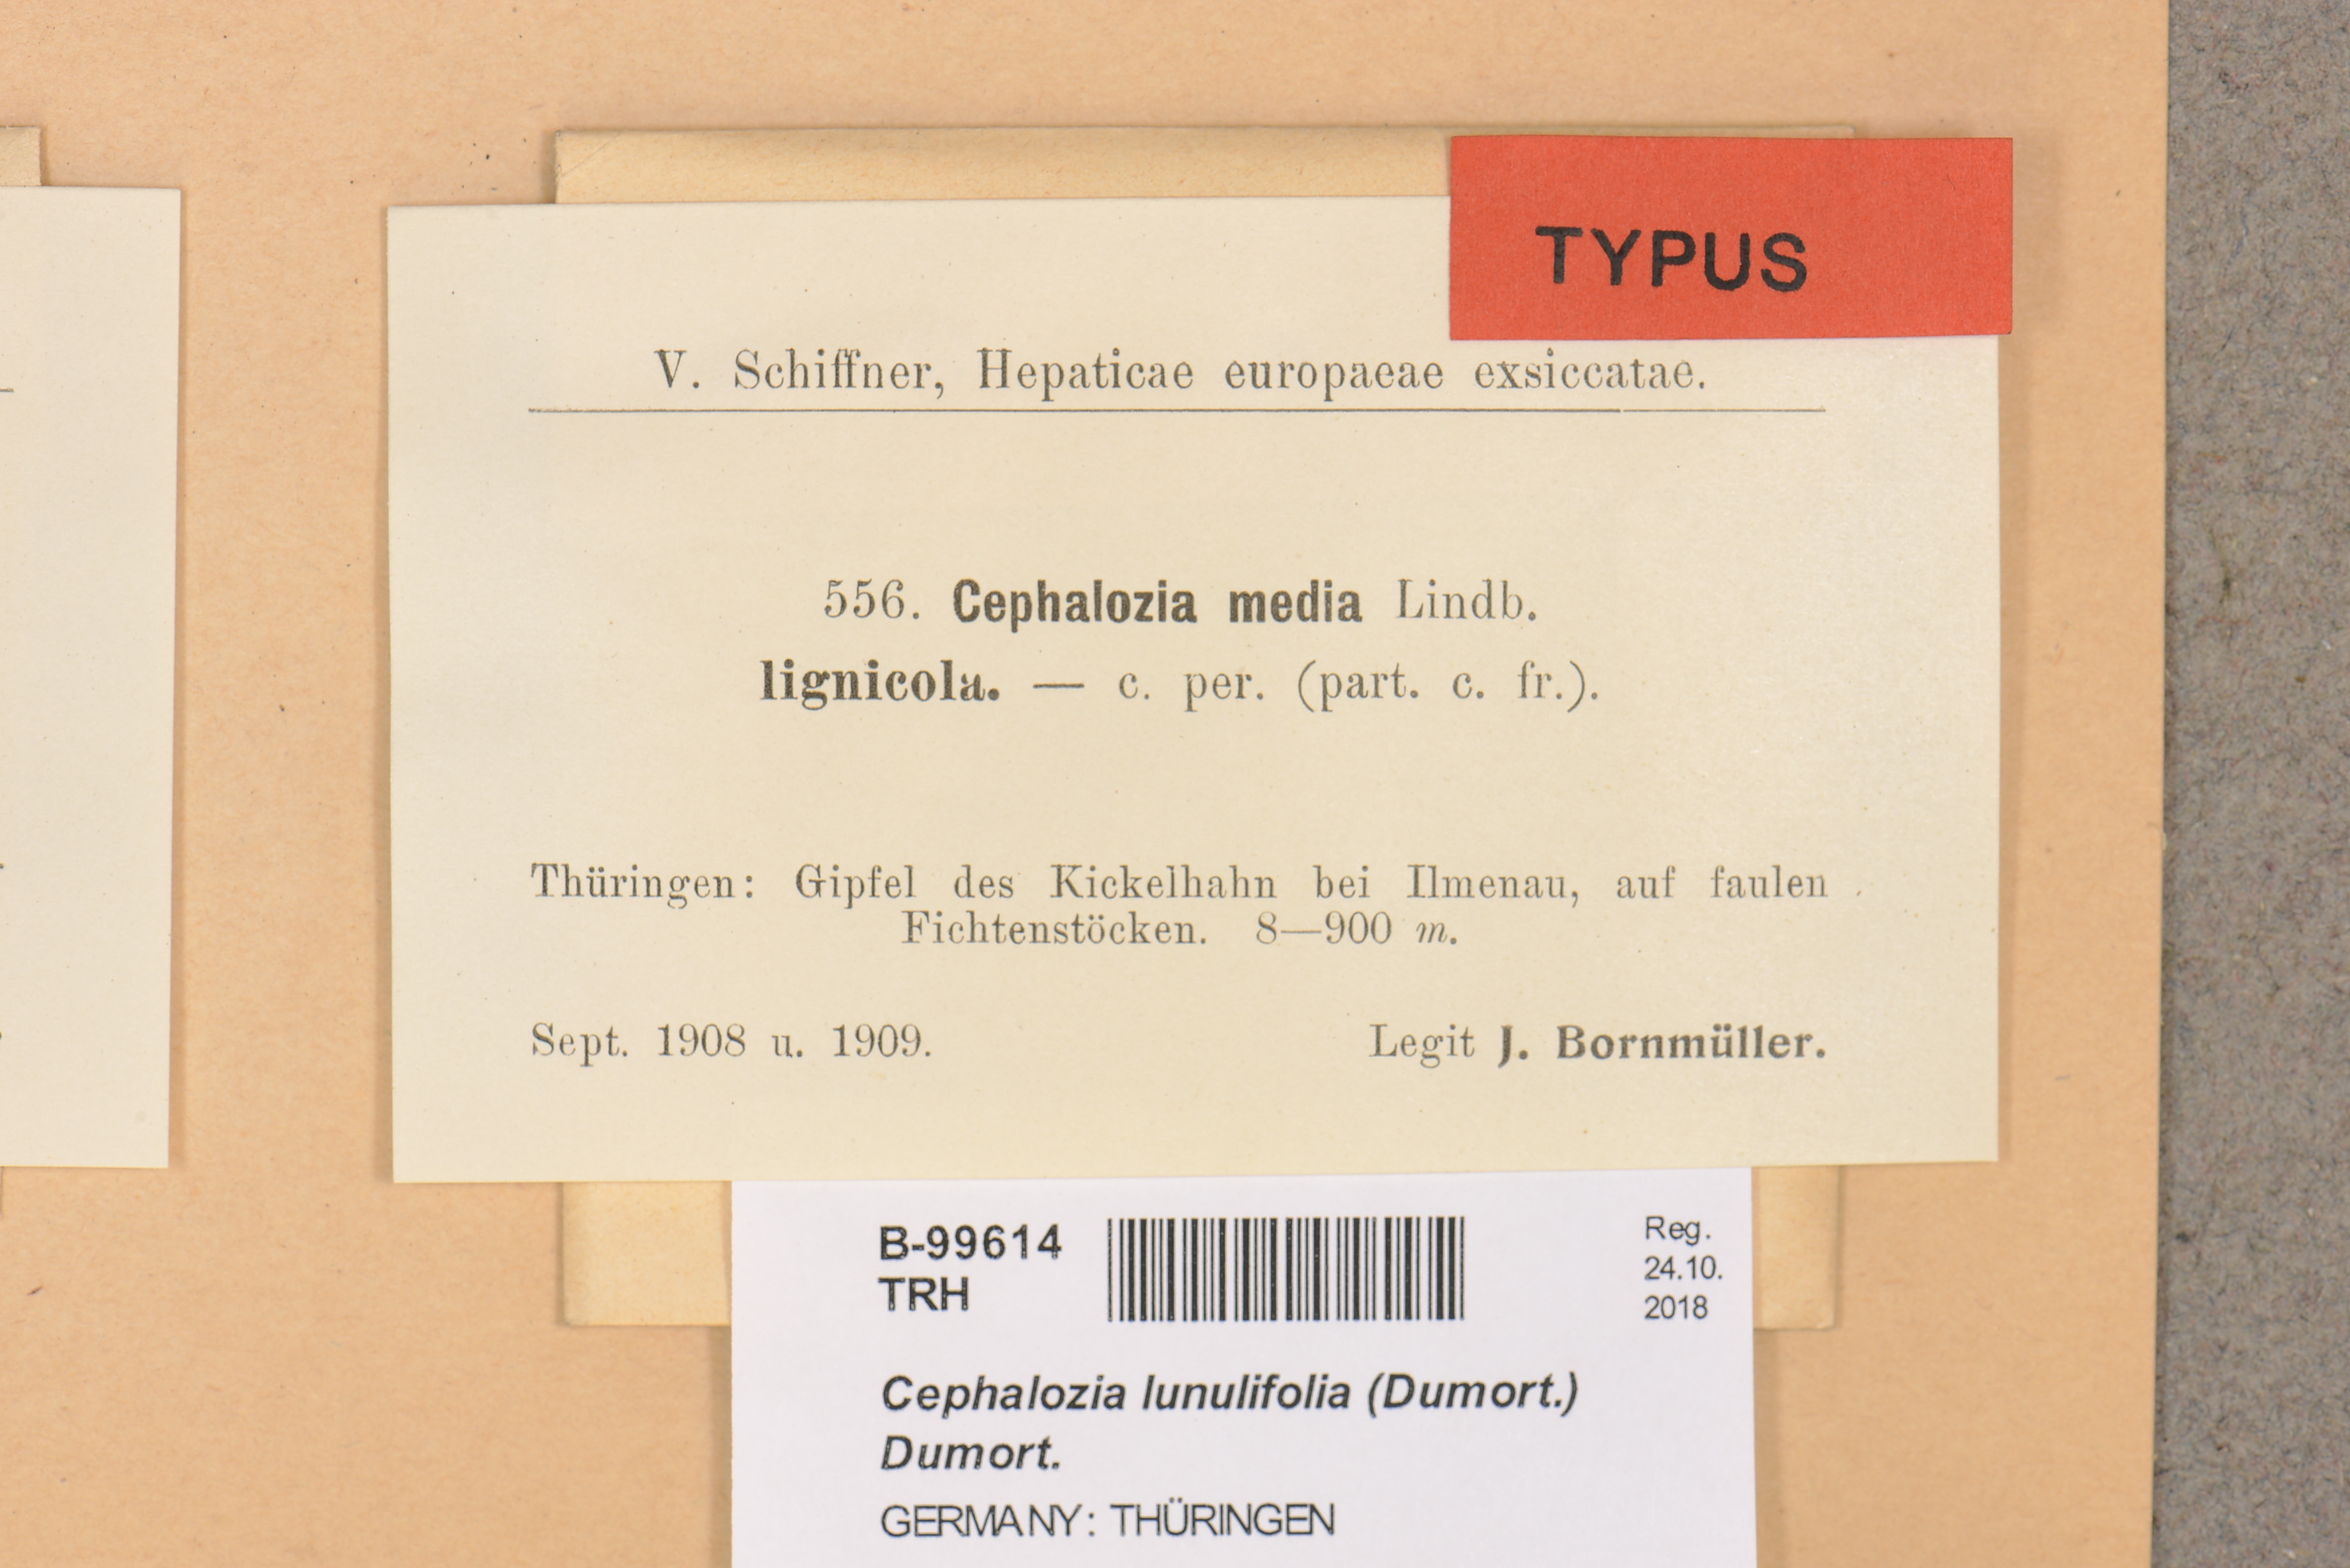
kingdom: Plantae
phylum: Marchantiophyta
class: Jungermanniopsida
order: Jungermanniales
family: Cephaloziaceae
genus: Fuscocephaloziopsis
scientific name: Fuscocephaloziopsis lunulifolia
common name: Moon-leaved pincerwort
